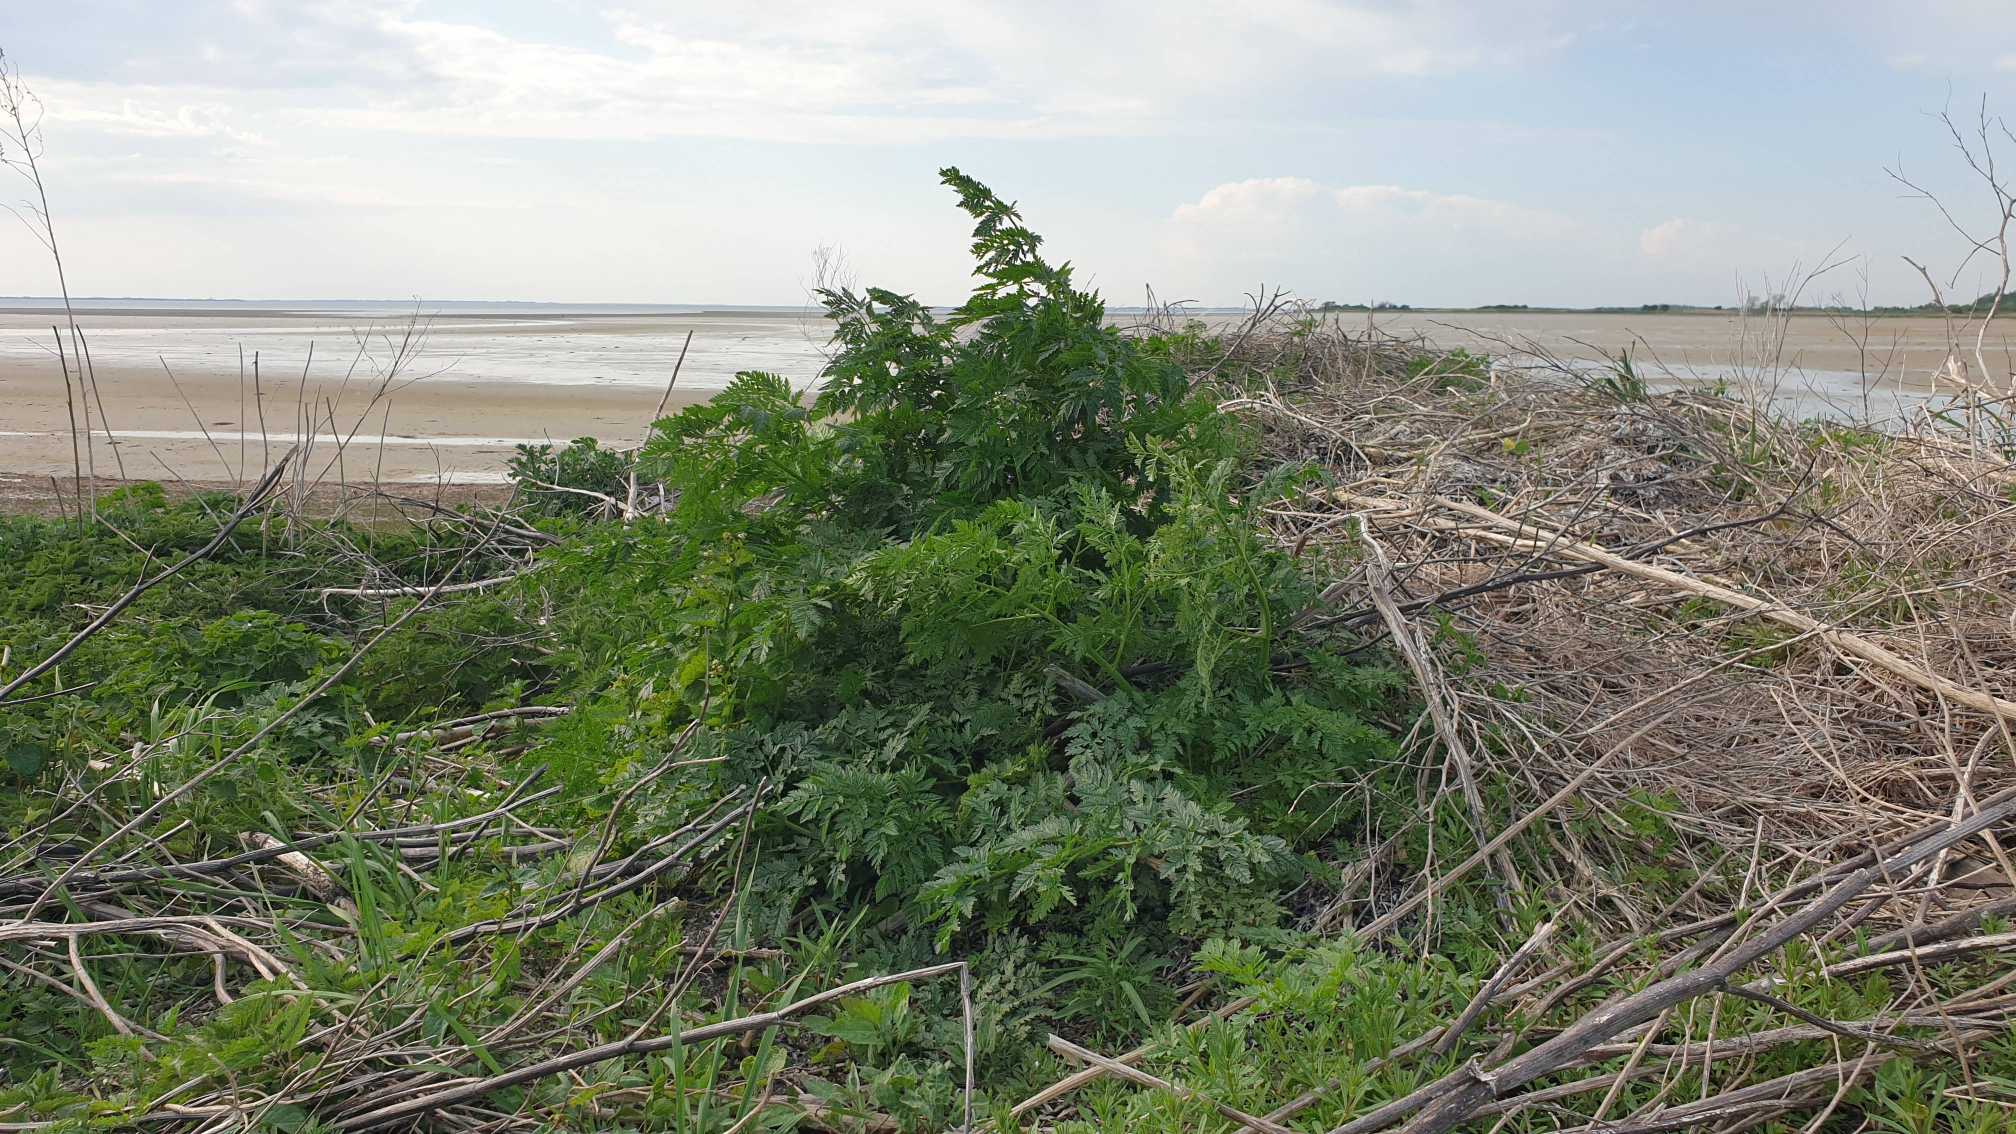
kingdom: Plantae
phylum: Tracheophyta
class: Magnoliopsida
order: Apiales
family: Apiaceae
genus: Conium
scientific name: Conium maculatum
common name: Skarntyde
